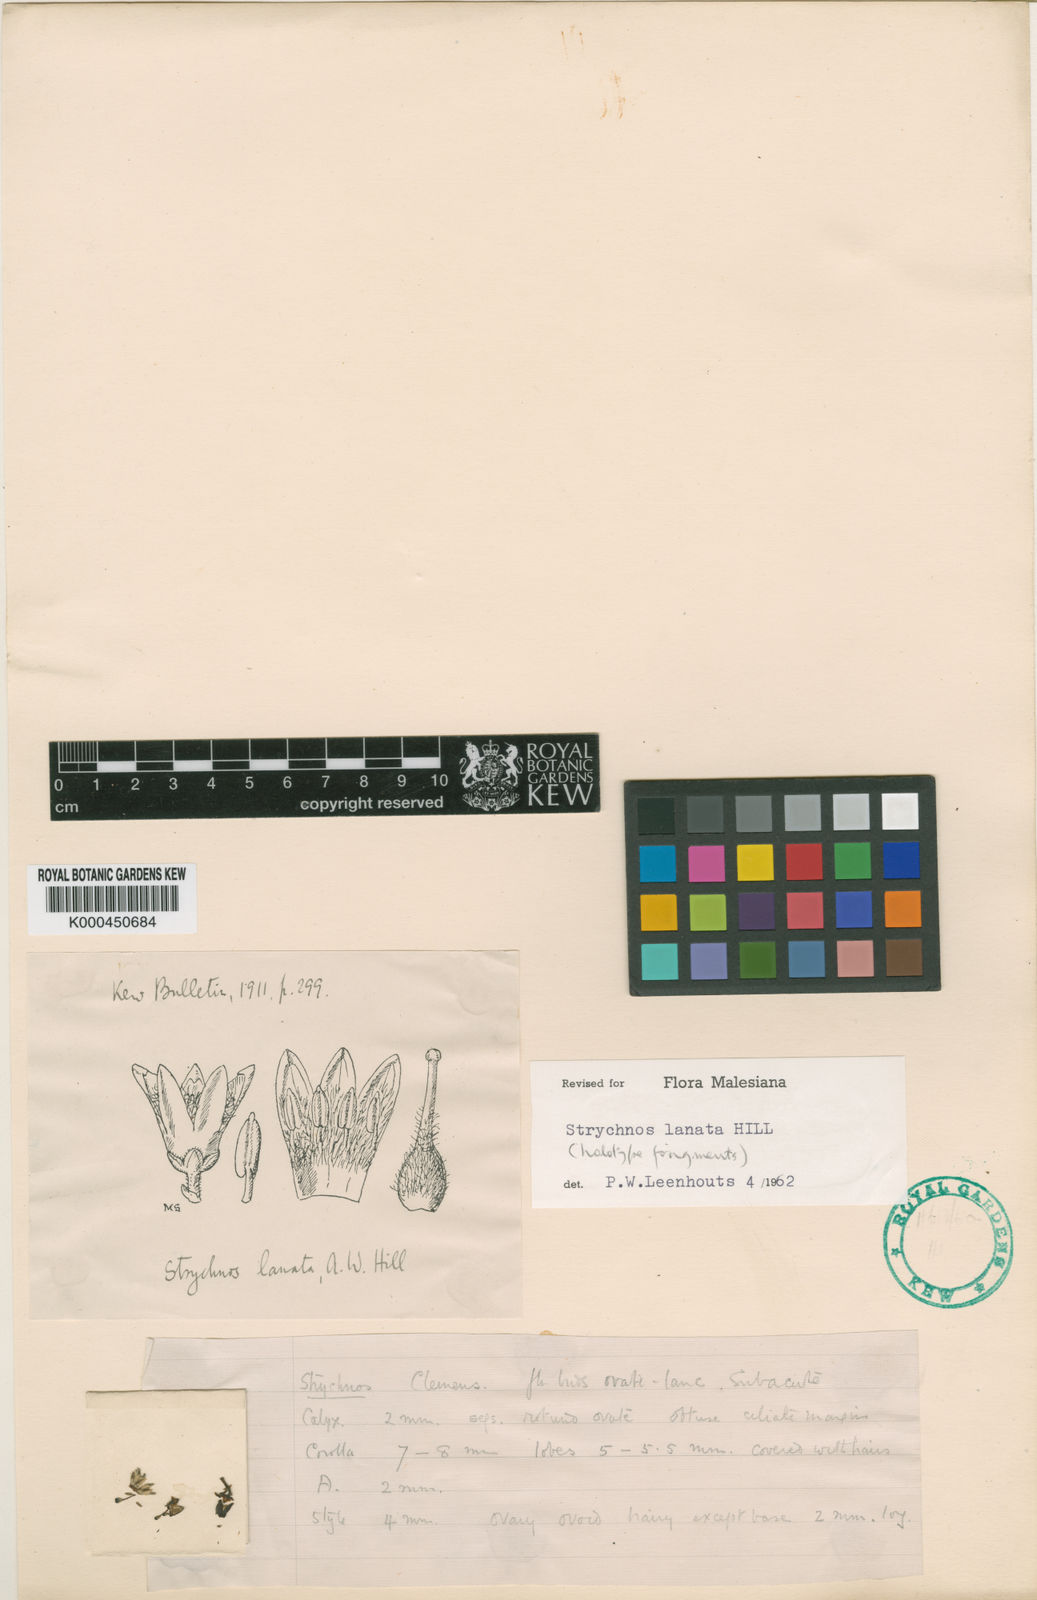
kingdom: Plantae
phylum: Tracheophyta
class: Magnoliopsida
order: Gentianales
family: Loganiaceae
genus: Strychnos
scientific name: Strychnos lanata
